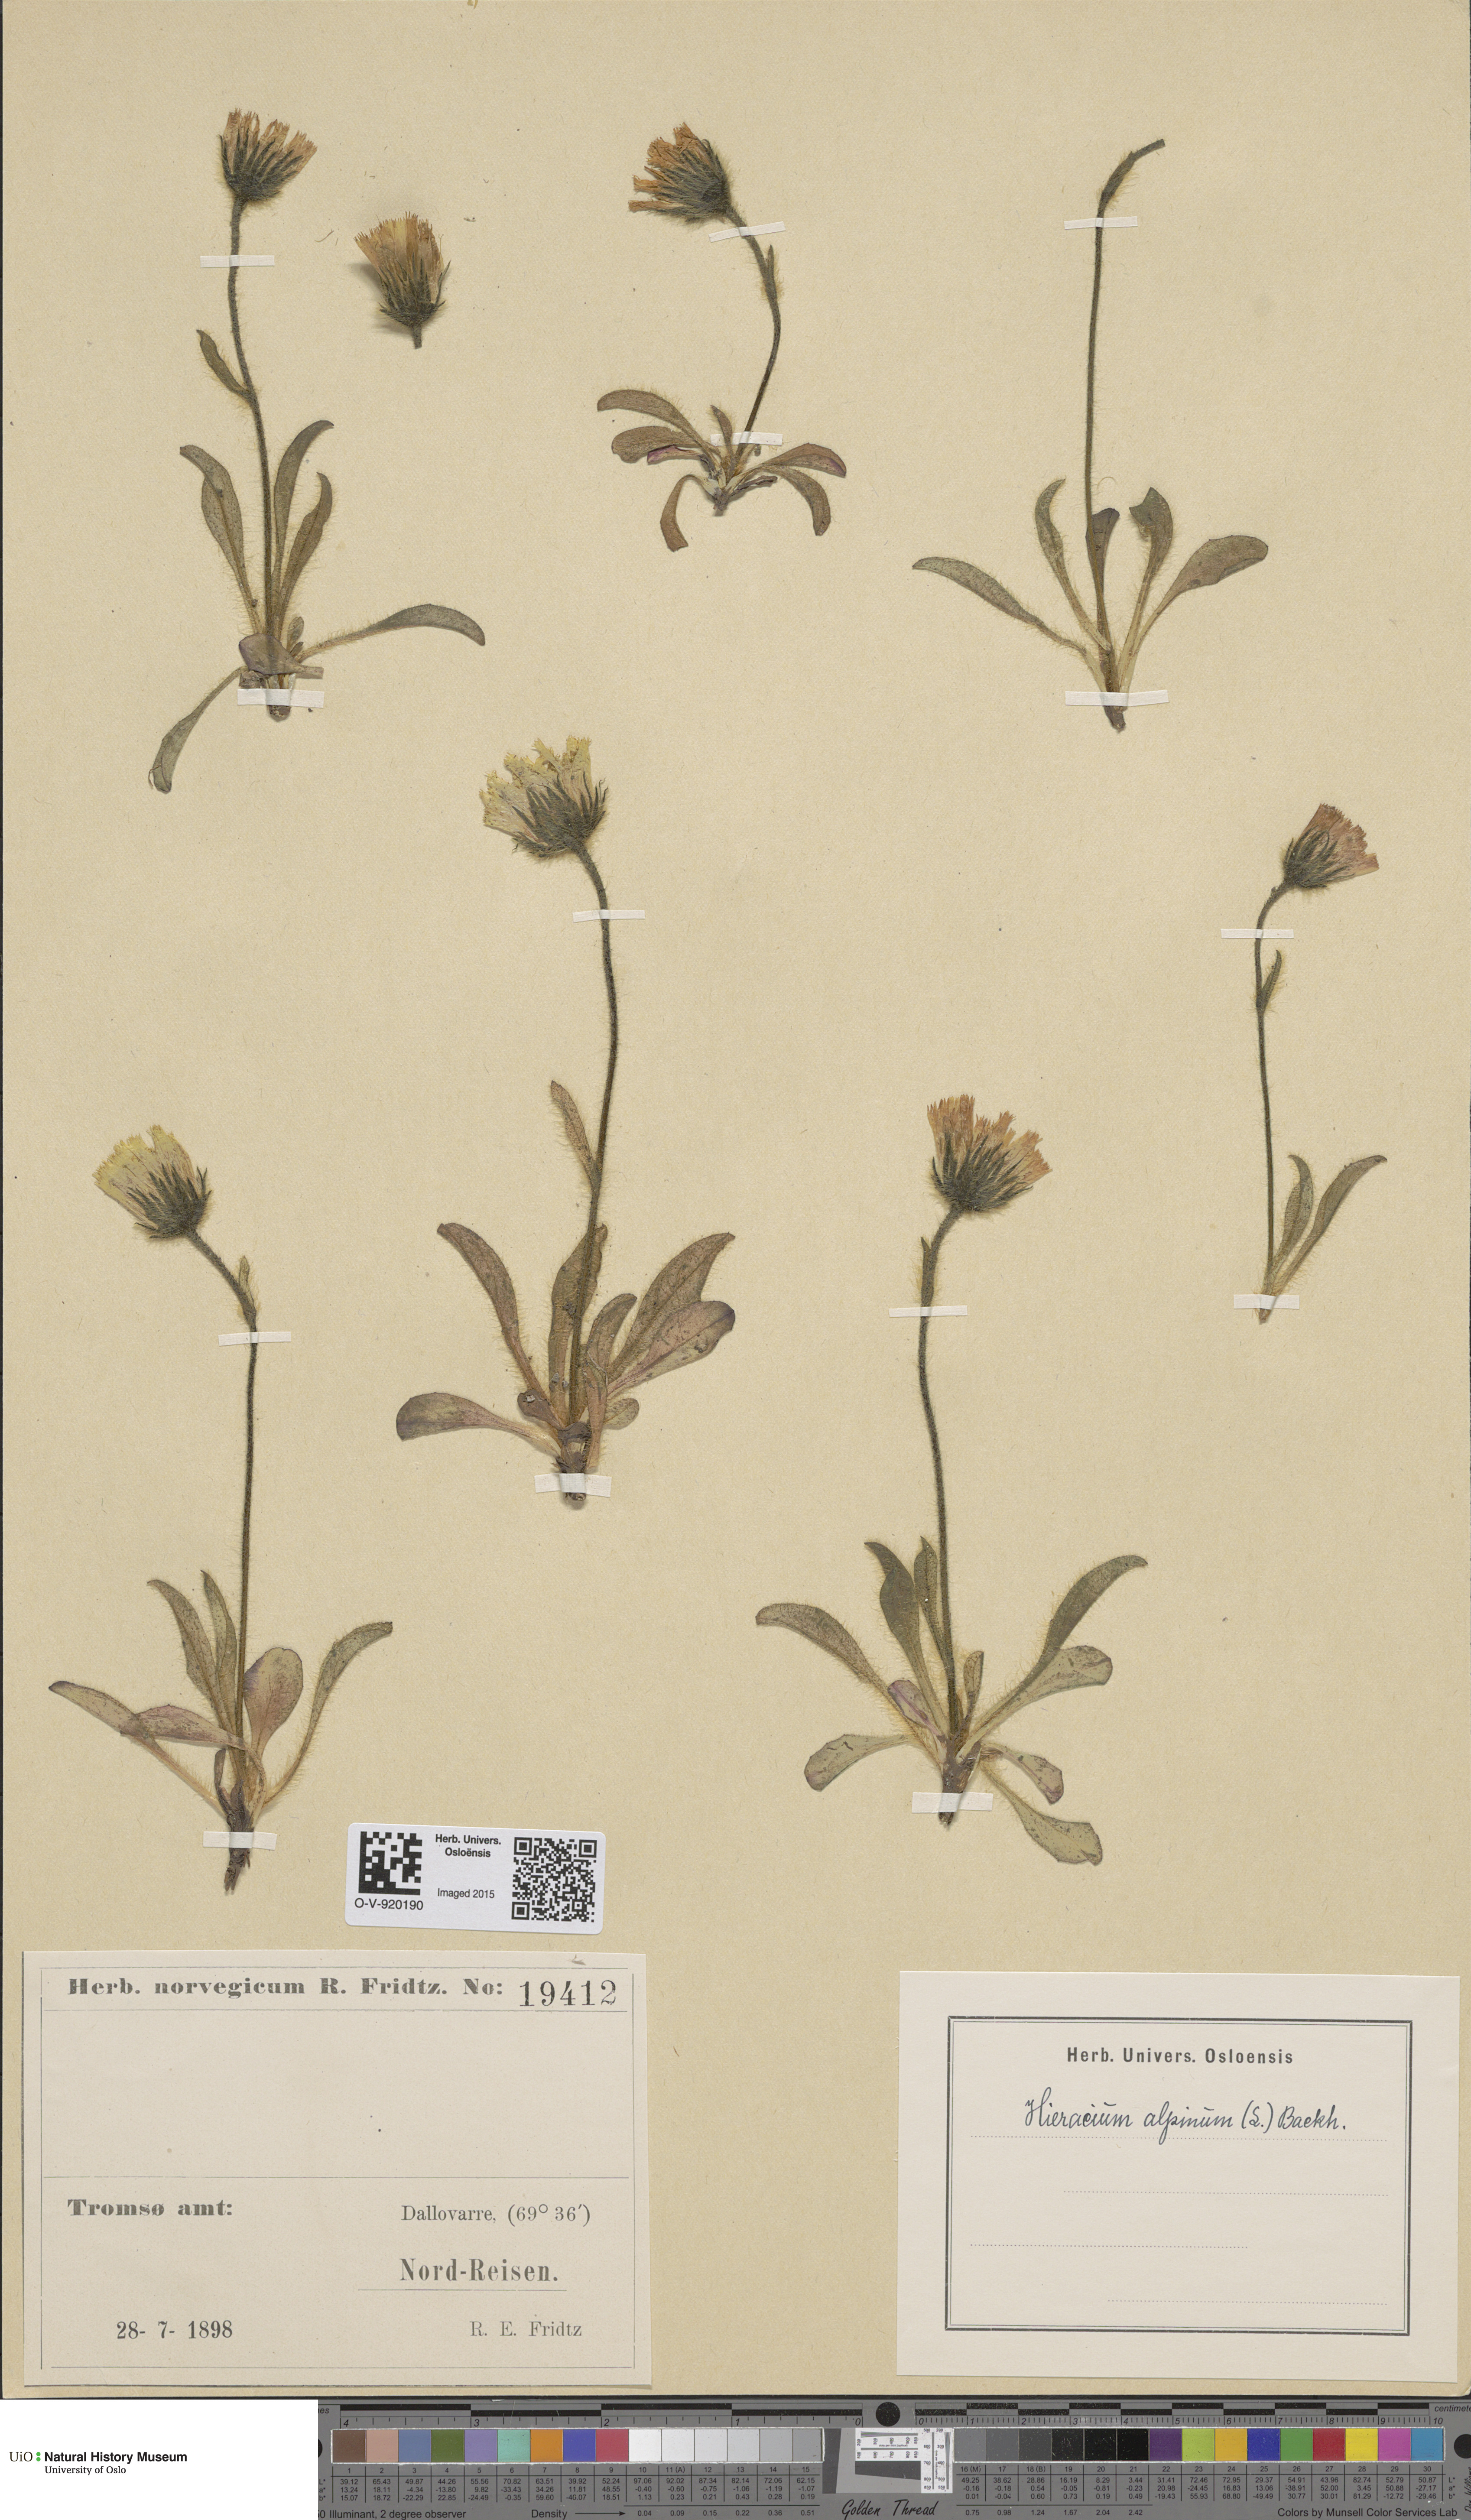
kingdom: Plantae
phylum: Tracheophyta
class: Magnoliopsida
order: Asterales
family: Asteraceae
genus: Hieracium
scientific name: Hieracium alpinum
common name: Alpine hawkweed
